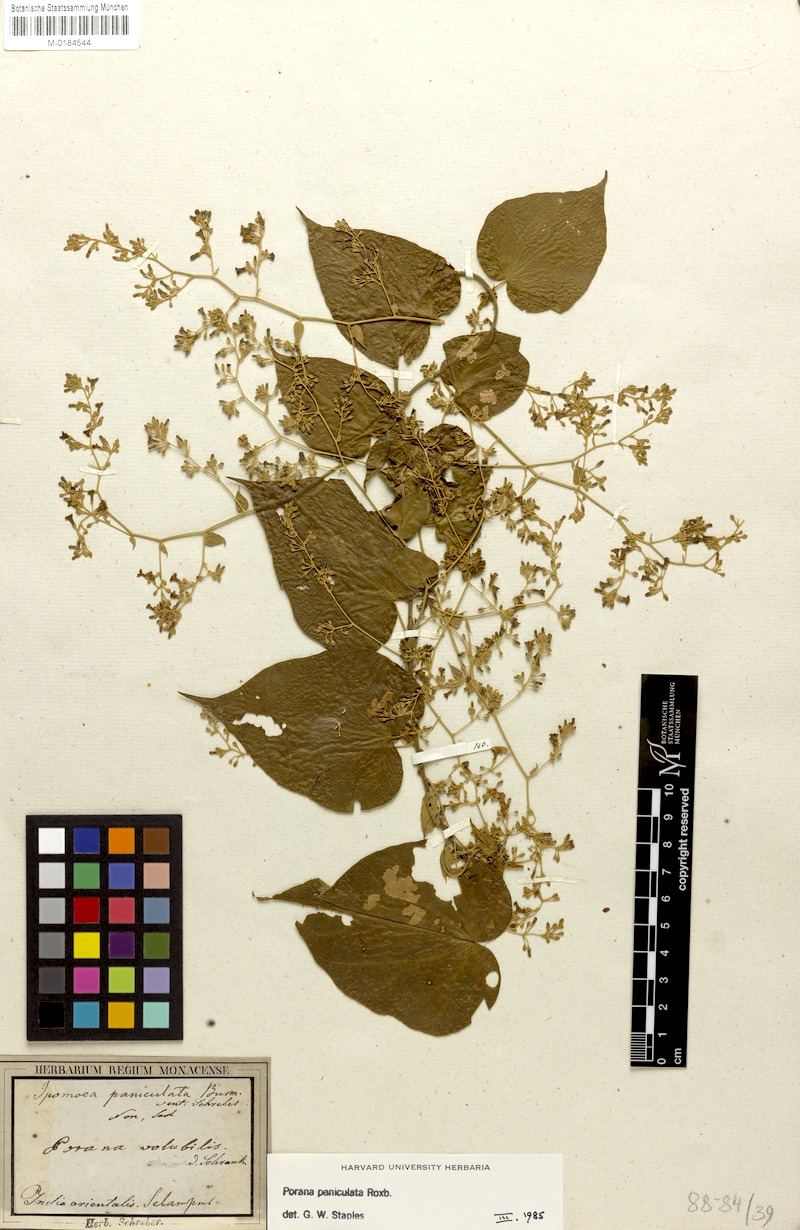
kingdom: Plantae
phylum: Tracheophyta
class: Magnoliopsida
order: Solanales
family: Convolvulaceae
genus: Poranopsis
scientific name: Poranopsis paniculata
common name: Bridal bouquet
